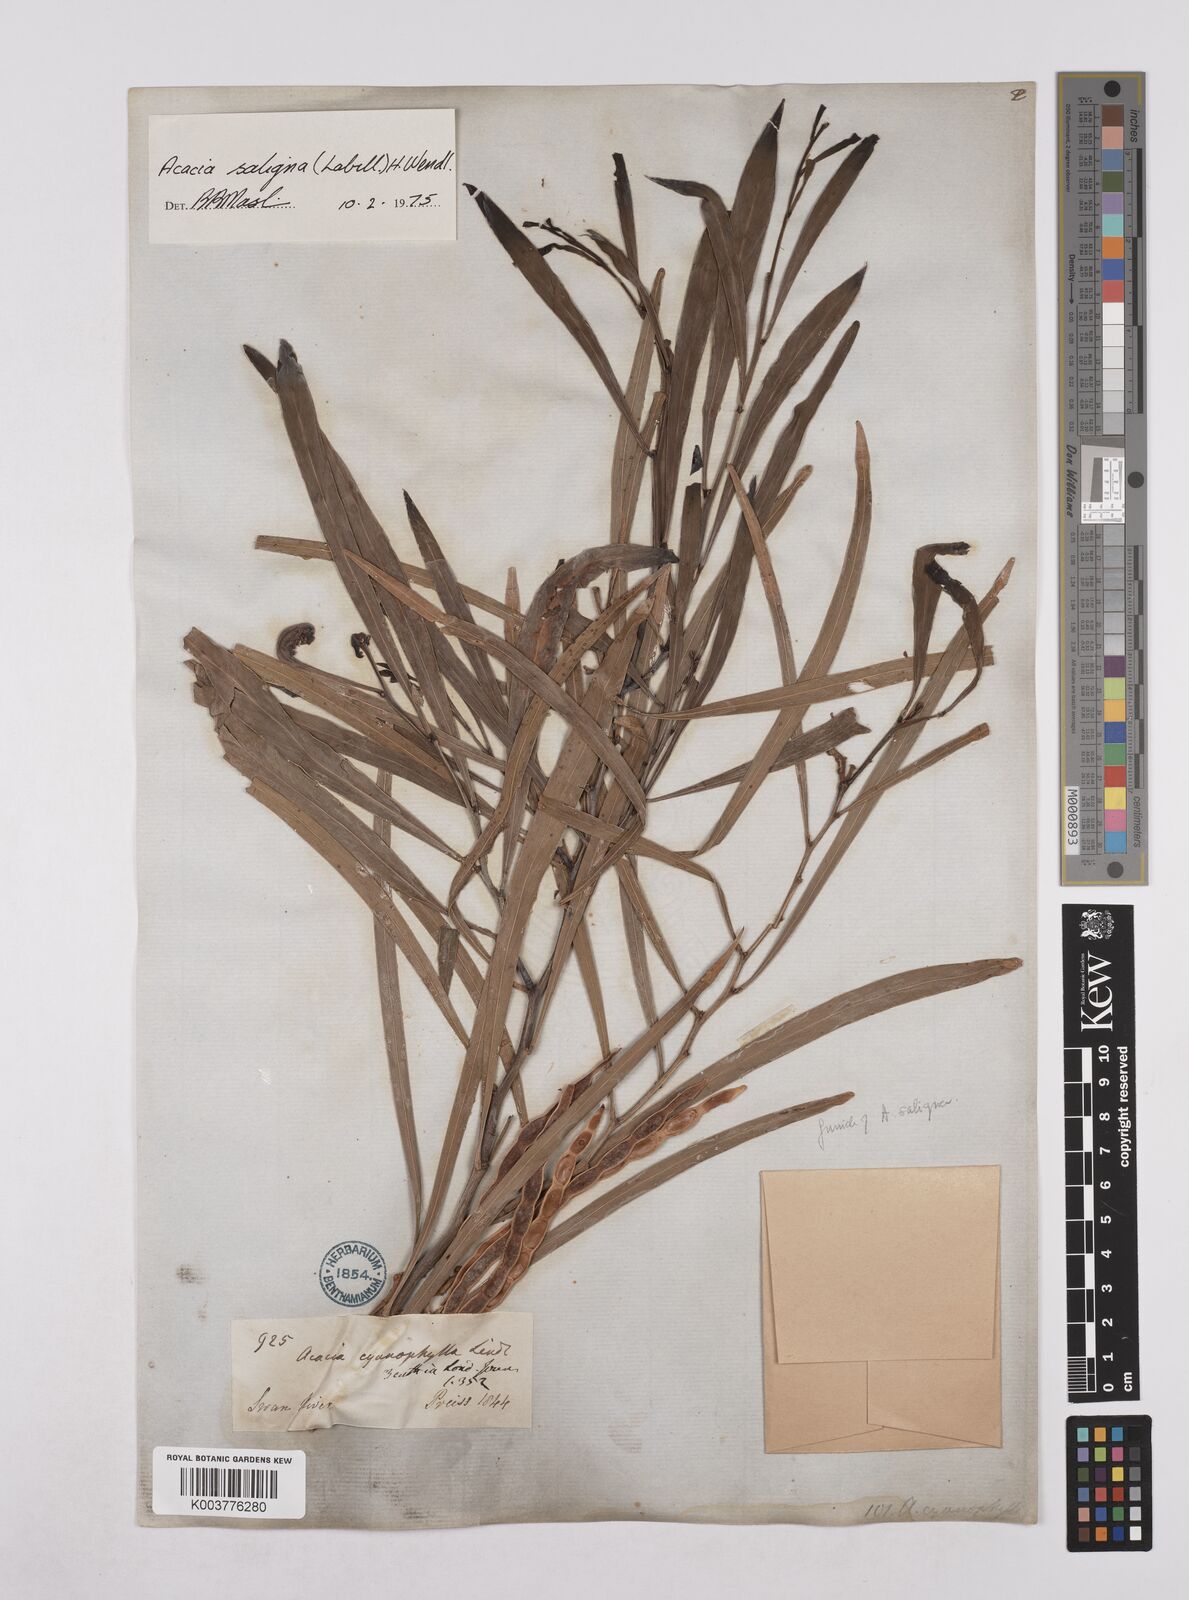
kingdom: Plantae
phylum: Tracheophyta
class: Magnoliopsida
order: Fabales
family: Fabaceae
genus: Acacia
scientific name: Acacia saligna
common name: Orange wattle
